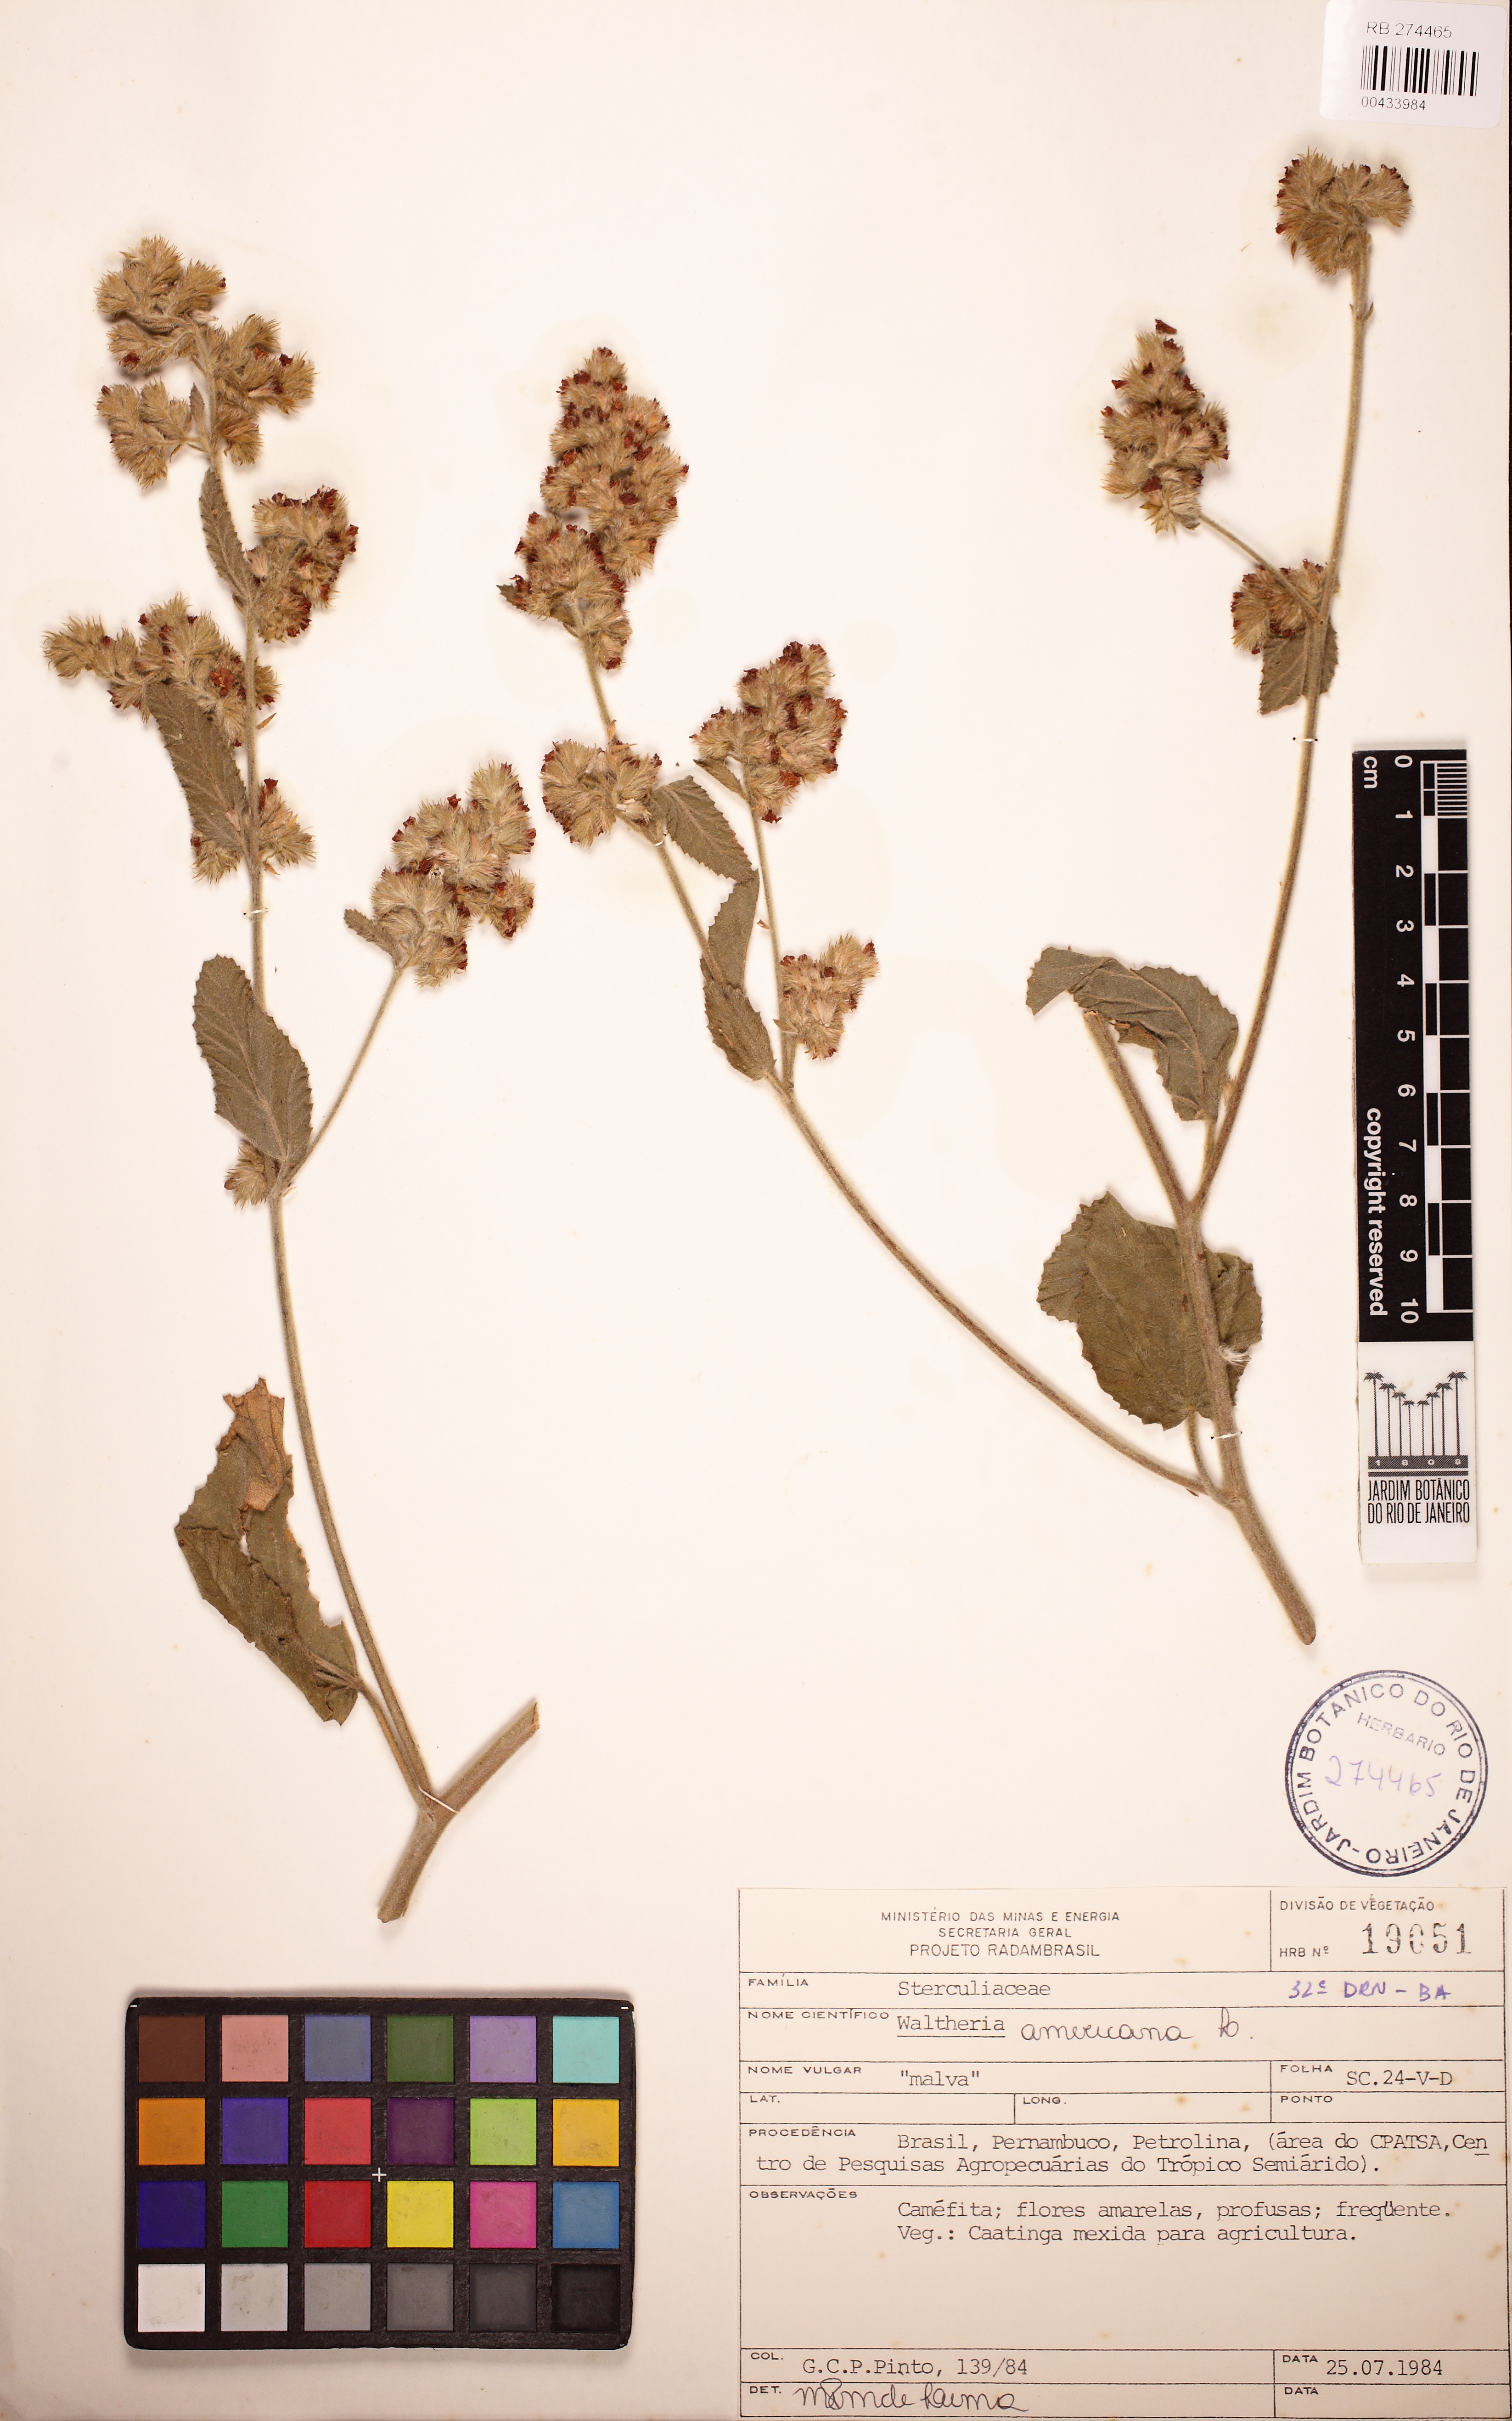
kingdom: Plantae
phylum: Tracheophyta
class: Magnoliopsida
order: Malvales
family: Malvaceae
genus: Waltheria
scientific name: Waltheria indica
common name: Leather-coat
